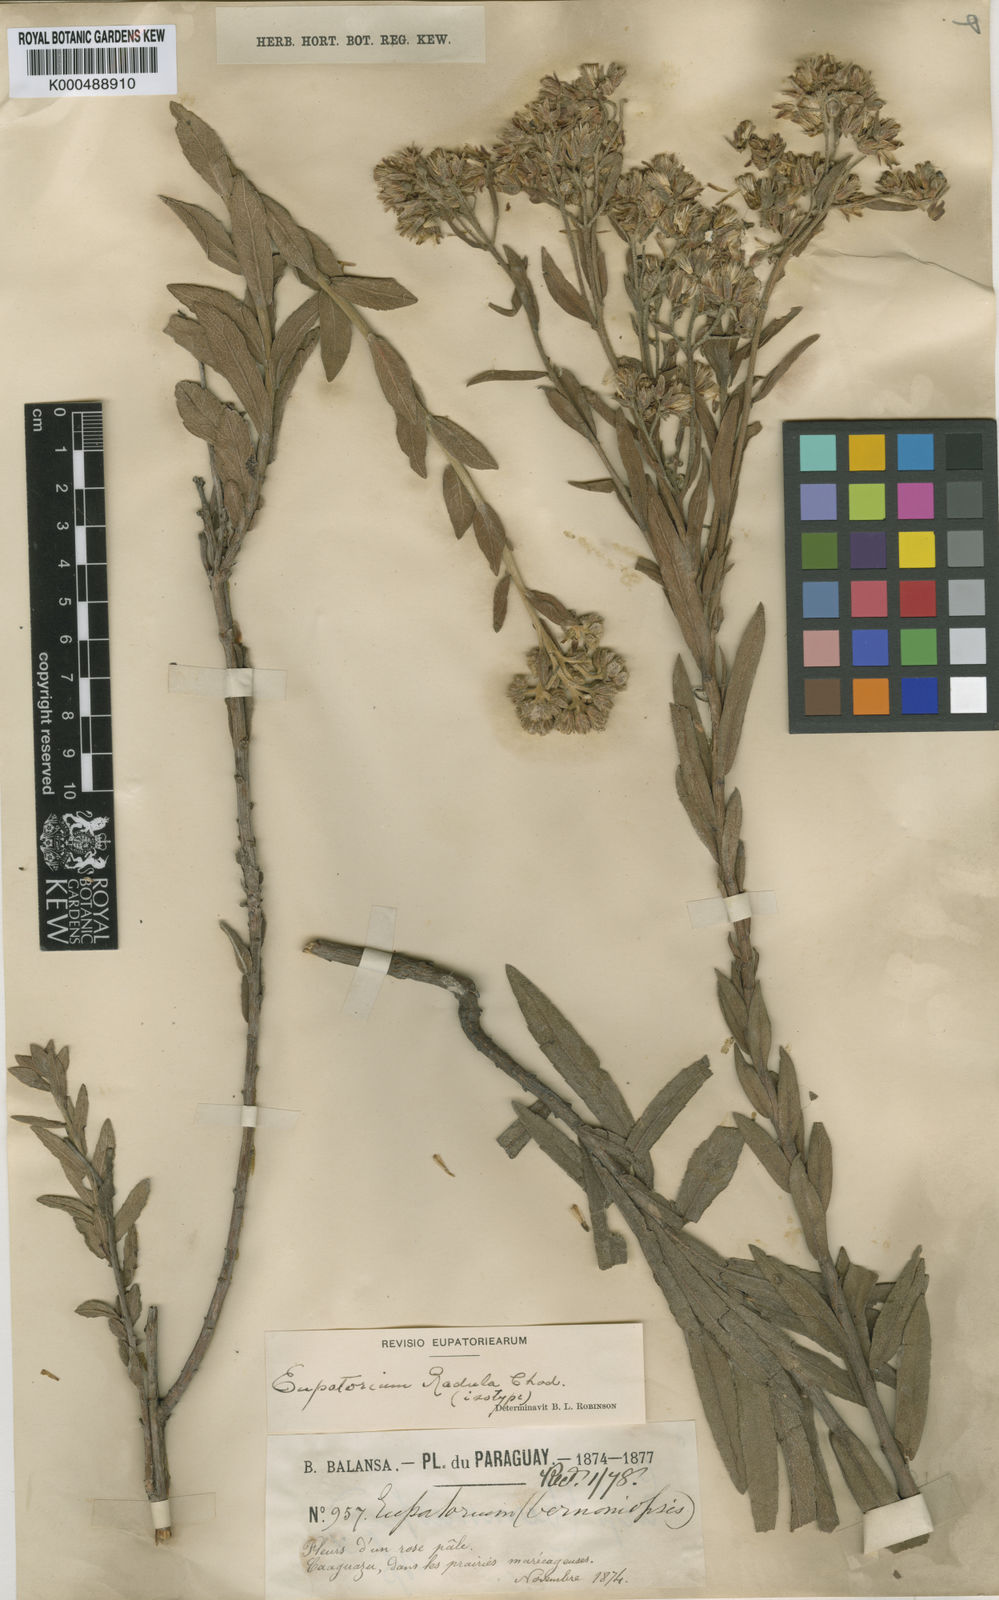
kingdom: Plantae
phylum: Tracheophyta
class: Magnoliopsida
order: Asterales
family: Asteraceae
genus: Disynaphia
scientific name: Disynaphia radula
